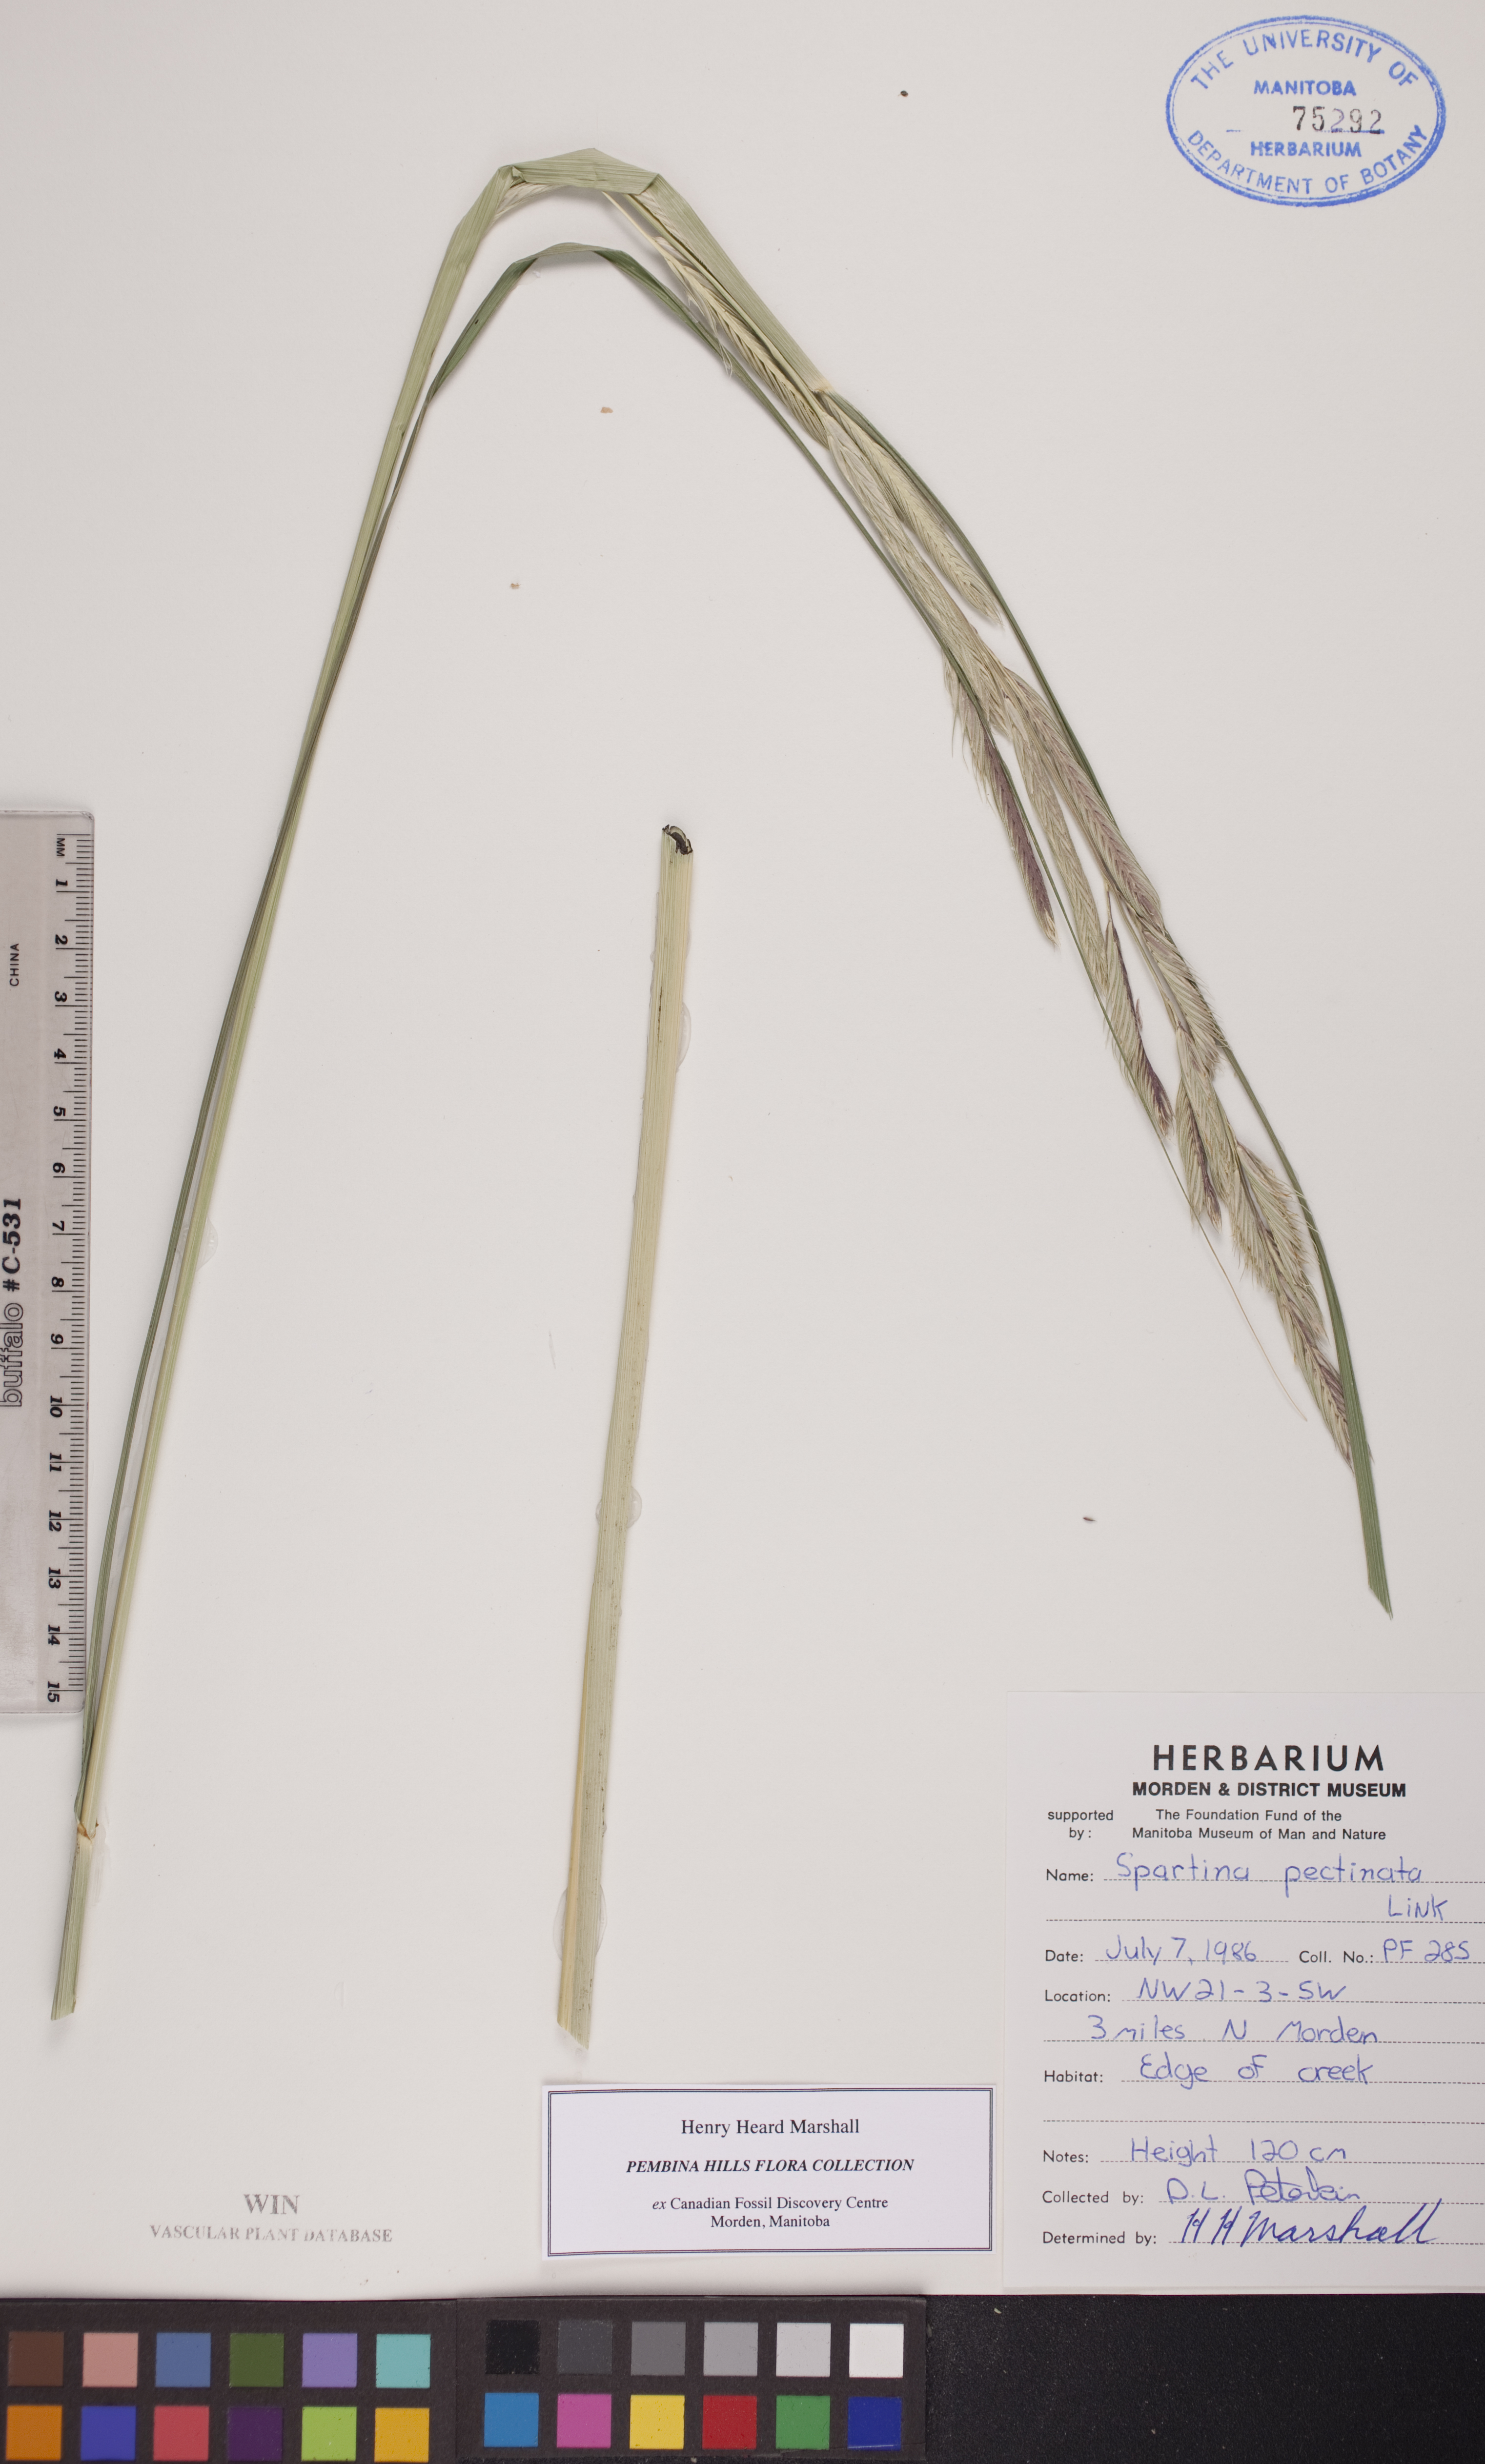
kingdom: Plantae
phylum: Tracheophyta
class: Liliopsida
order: Poales
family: Poaceae
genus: Sporobolus
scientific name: Sporobolus michauxianus
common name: Freshwater cordgrass
